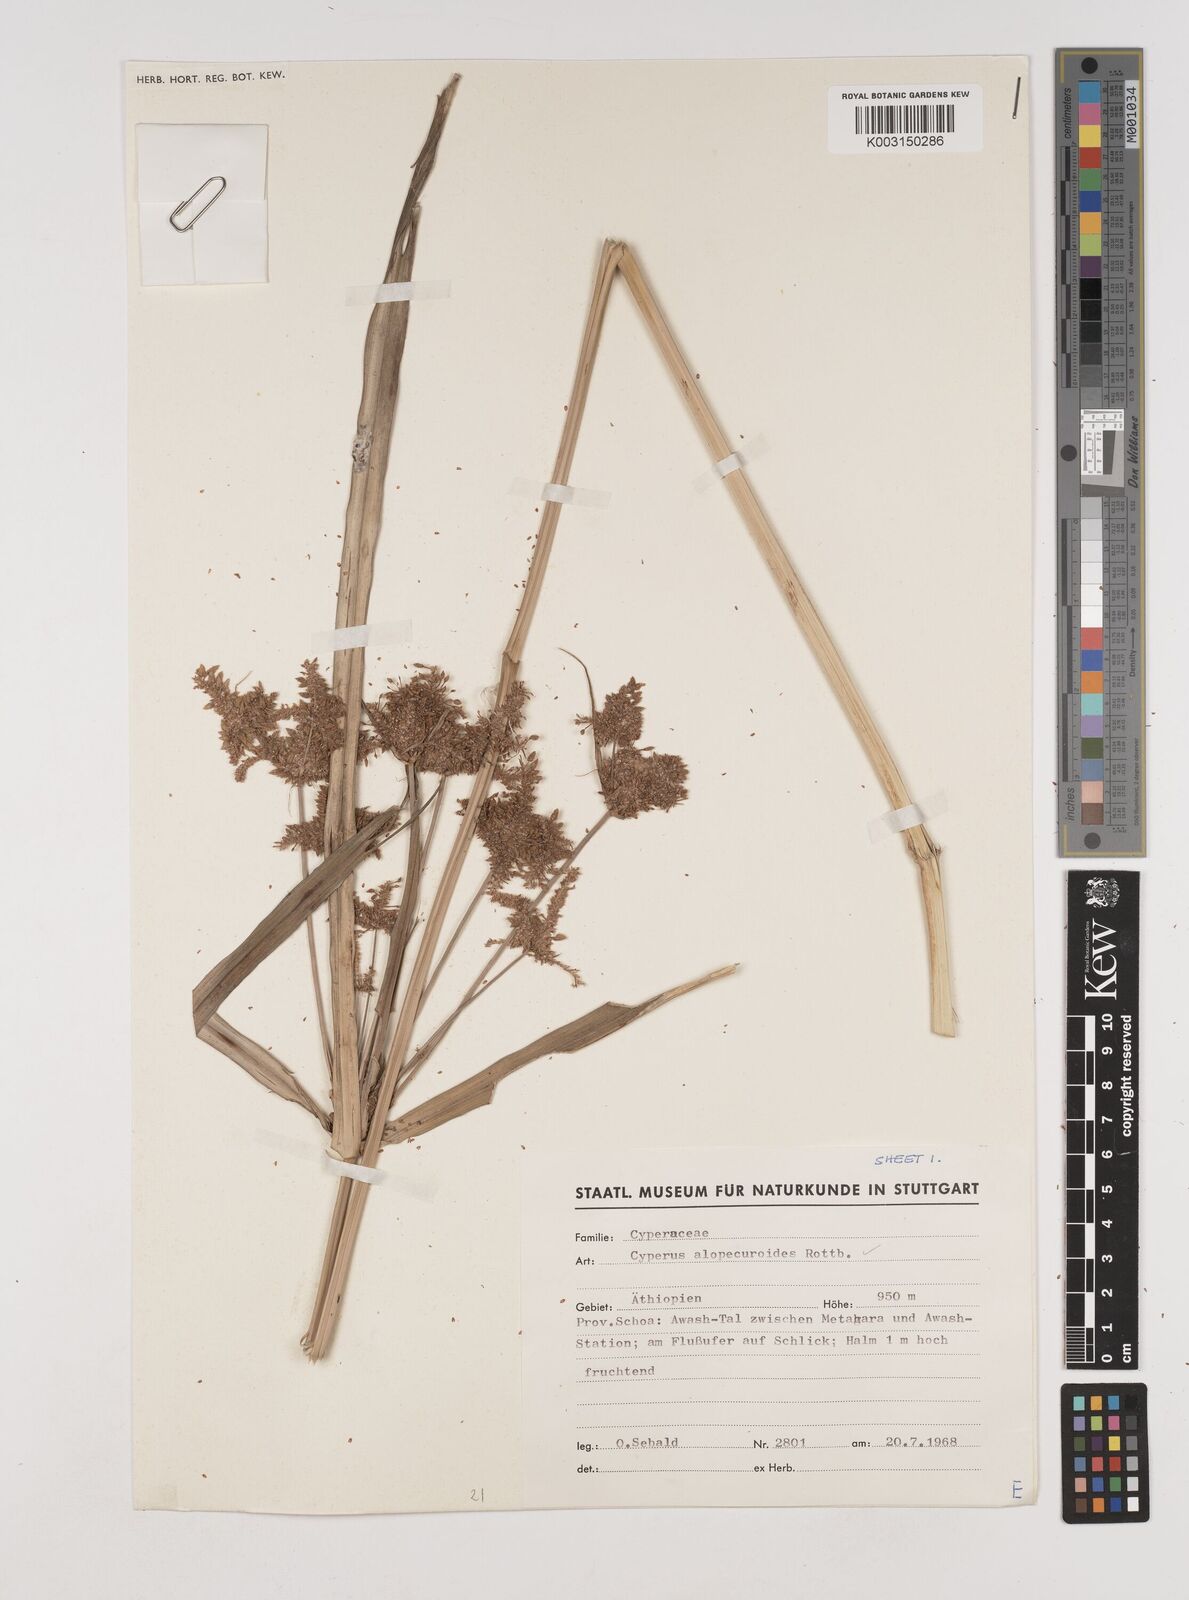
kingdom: Plantae
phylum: Tracheophyta
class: Liliopsida
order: Poales
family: Cyperaceae
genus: Cyperus
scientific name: Cyperus alopecuroides
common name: Foxtail flatsedge
